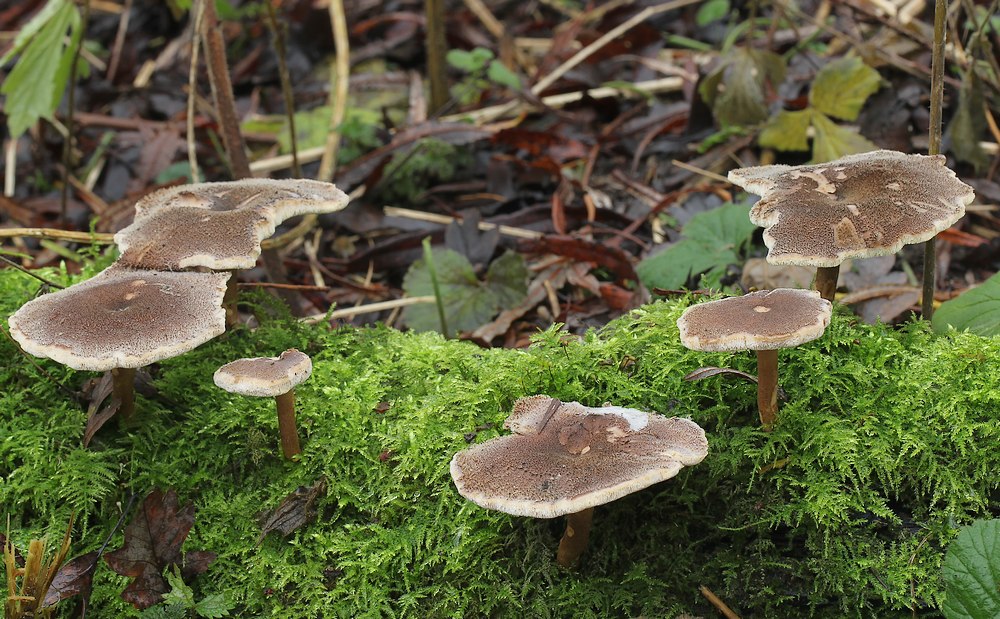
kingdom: Fungi
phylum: Basidiomycota
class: Agaricomycetes
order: Polyporales
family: Polyporaceae
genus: Lentinus
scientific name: Lentinus brumalis
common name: vinter-stilkporesvamp
